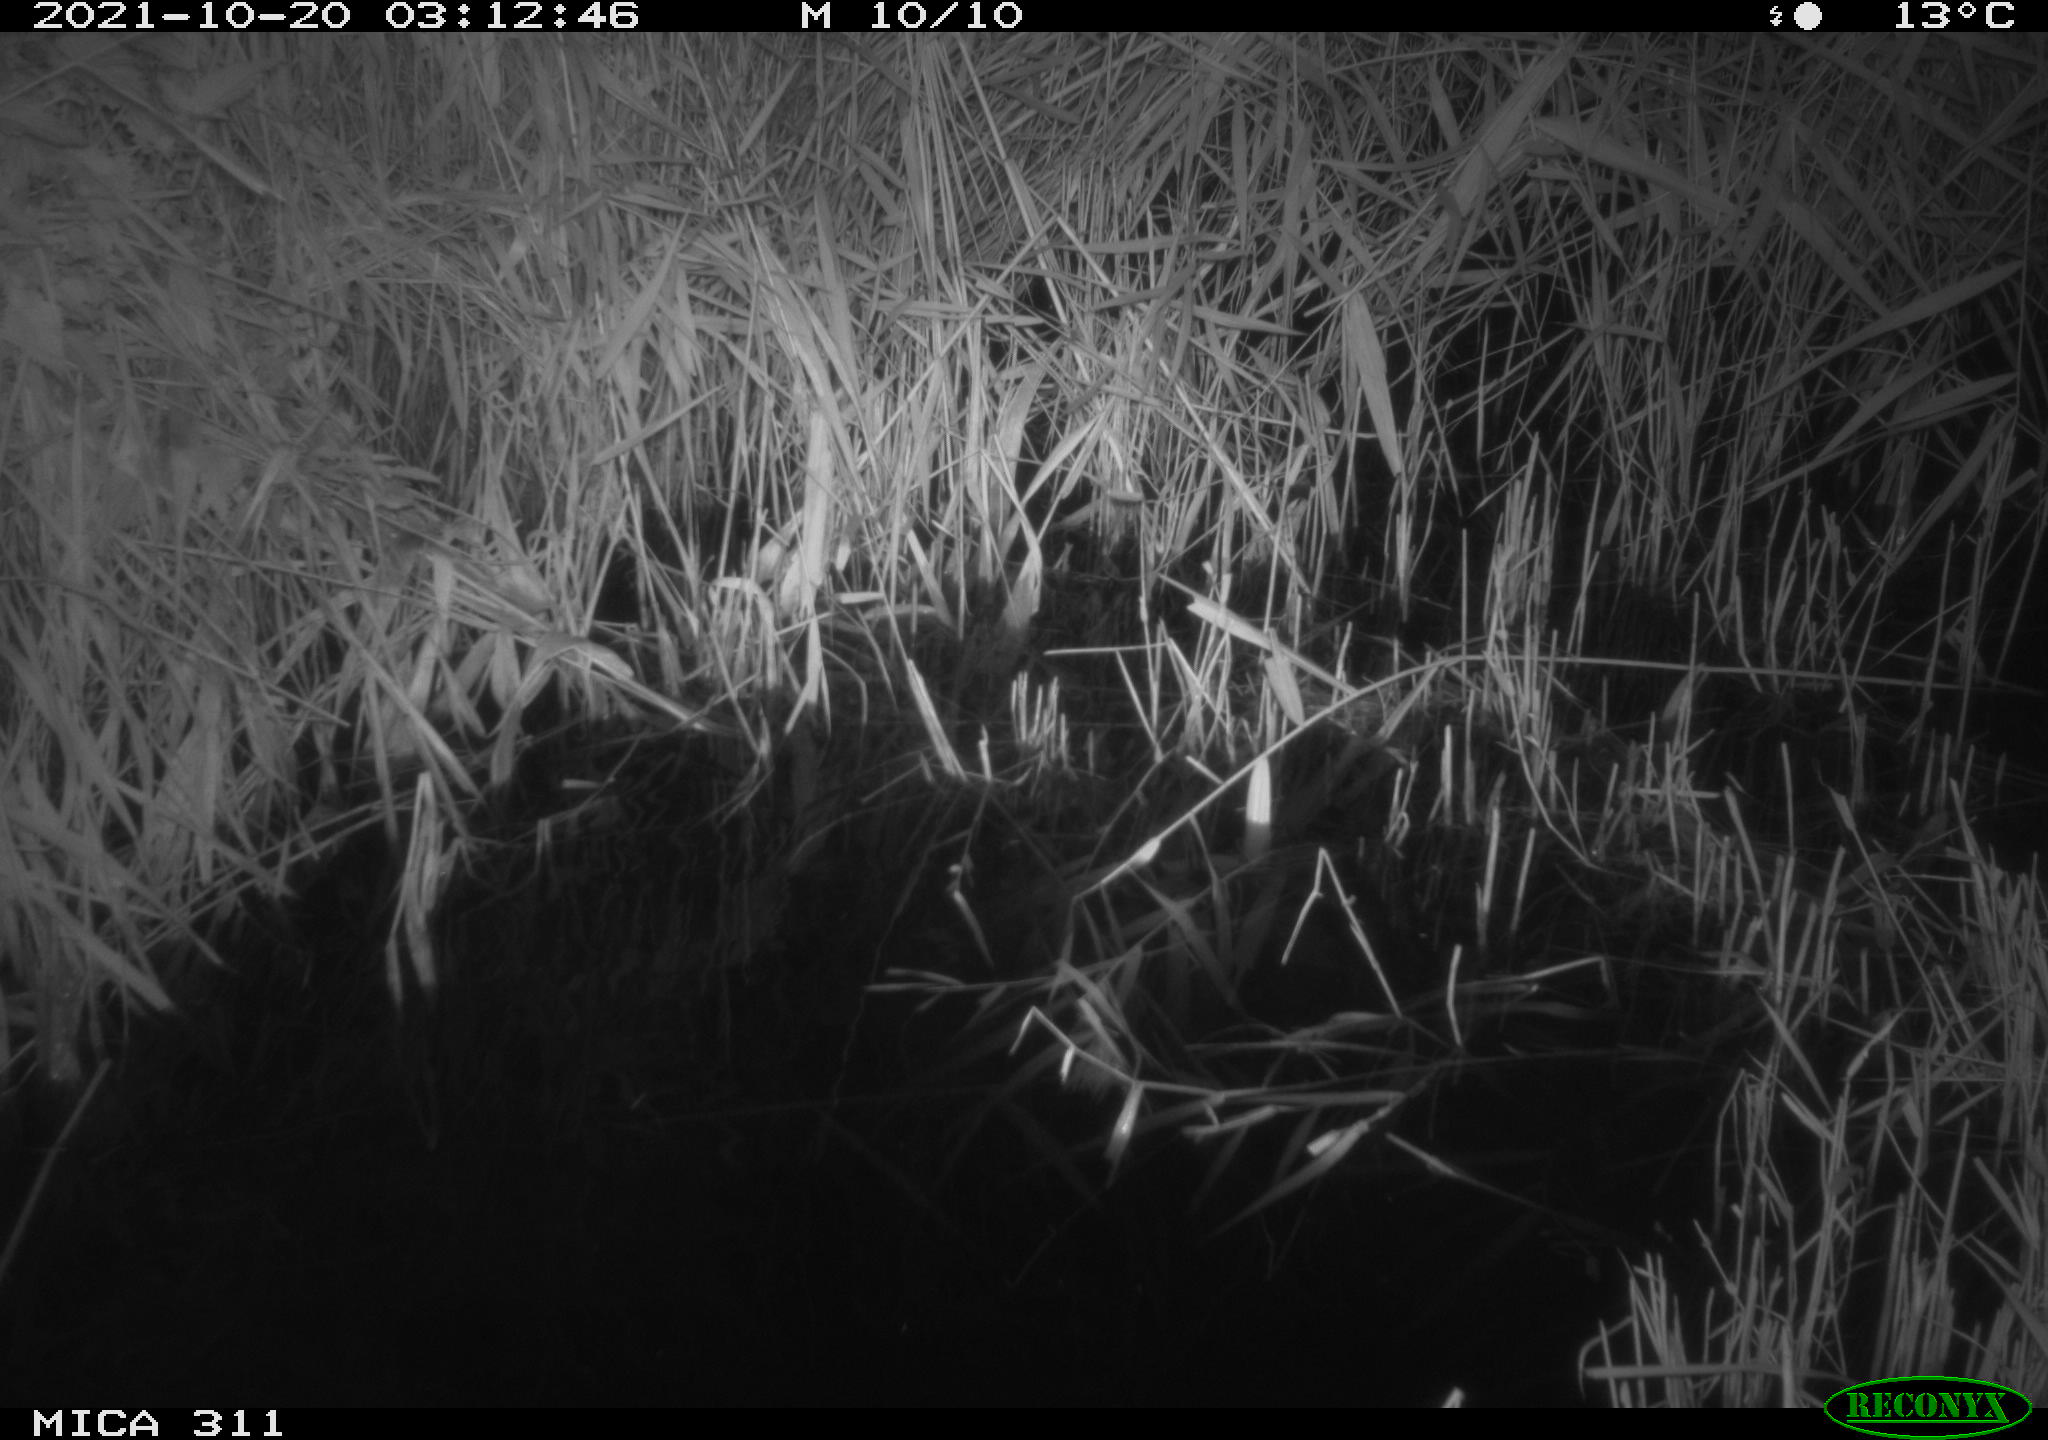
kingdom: Animalia
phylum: Chordata
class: Mammalia
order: Rodentia
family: Muridae
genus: Rattus
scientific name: Rattus norvegicus
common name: Brown rat
